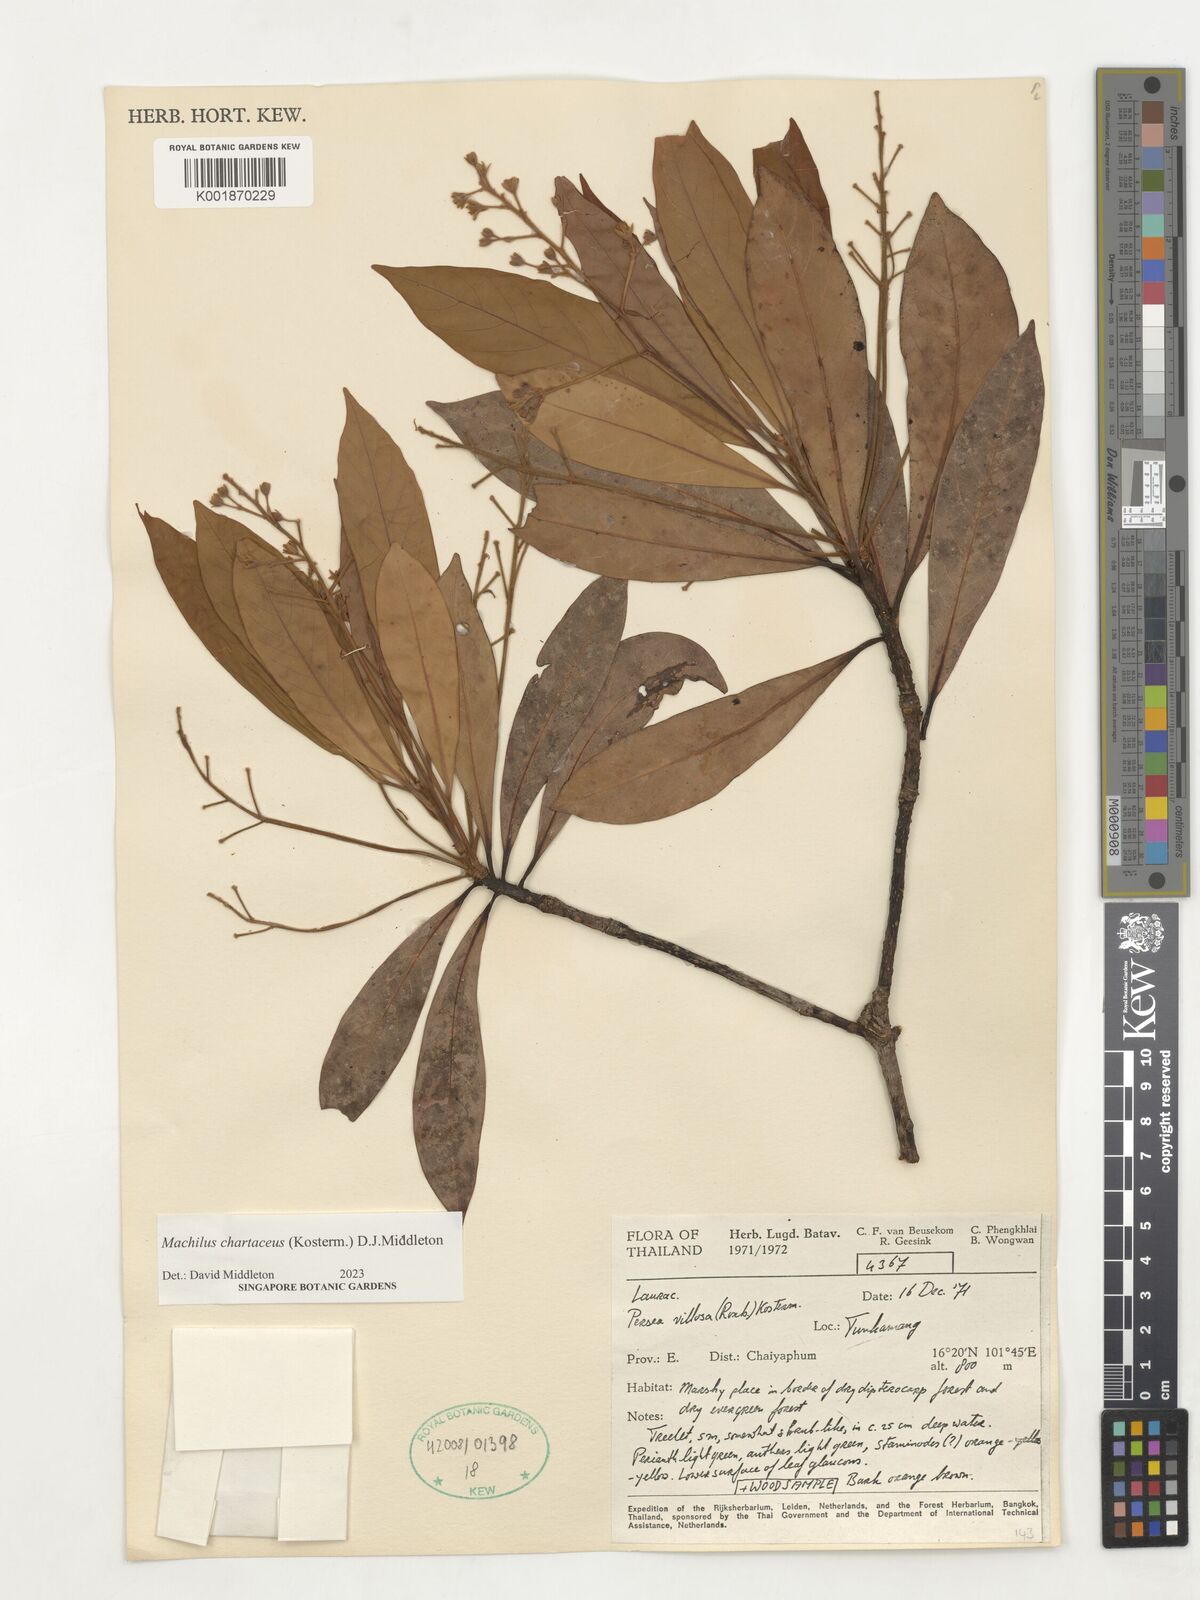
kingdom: Plantae
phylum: Tracheophyta
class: Magnoliopsida
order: Laurales
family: Lauraceae
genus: Machilus
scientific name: Machilus
